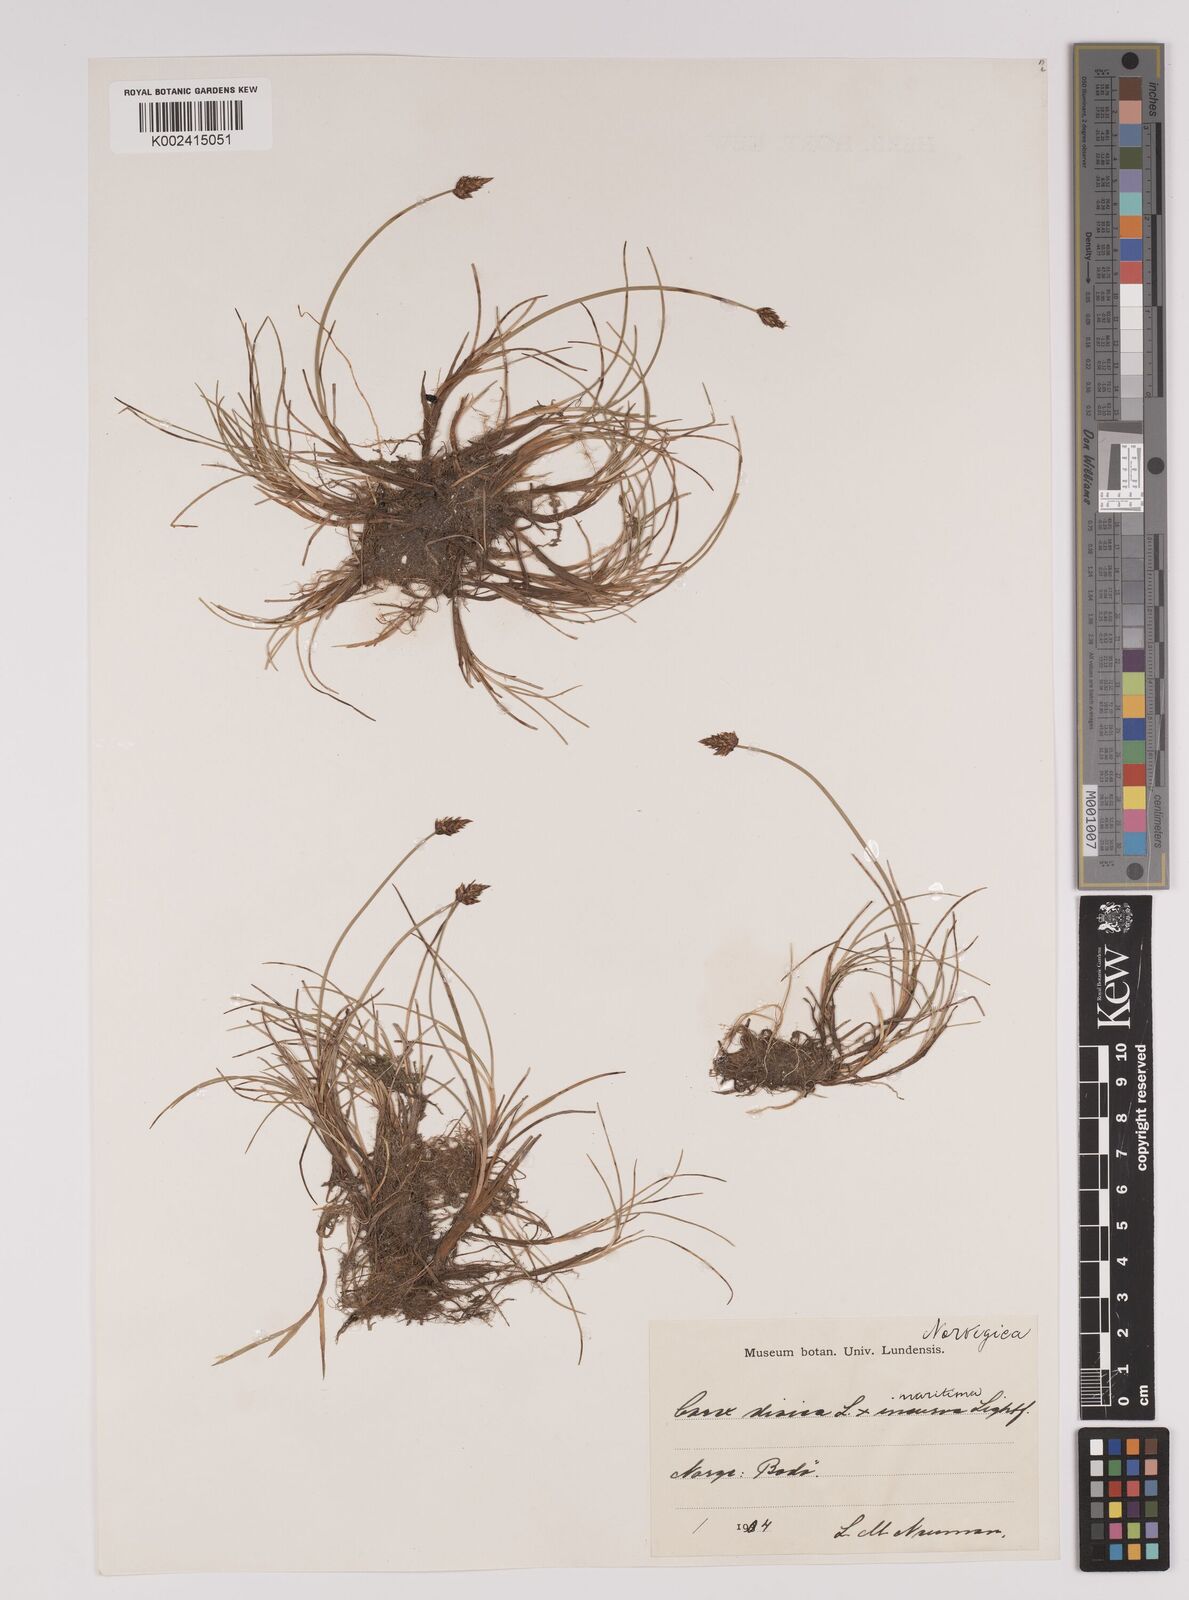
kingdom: Plantae
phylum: Tracheophyta
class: Liliopsida
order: Poales
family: Cyperaceae
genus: Carex
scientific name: Carex dioica
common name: Dioecious sedge
